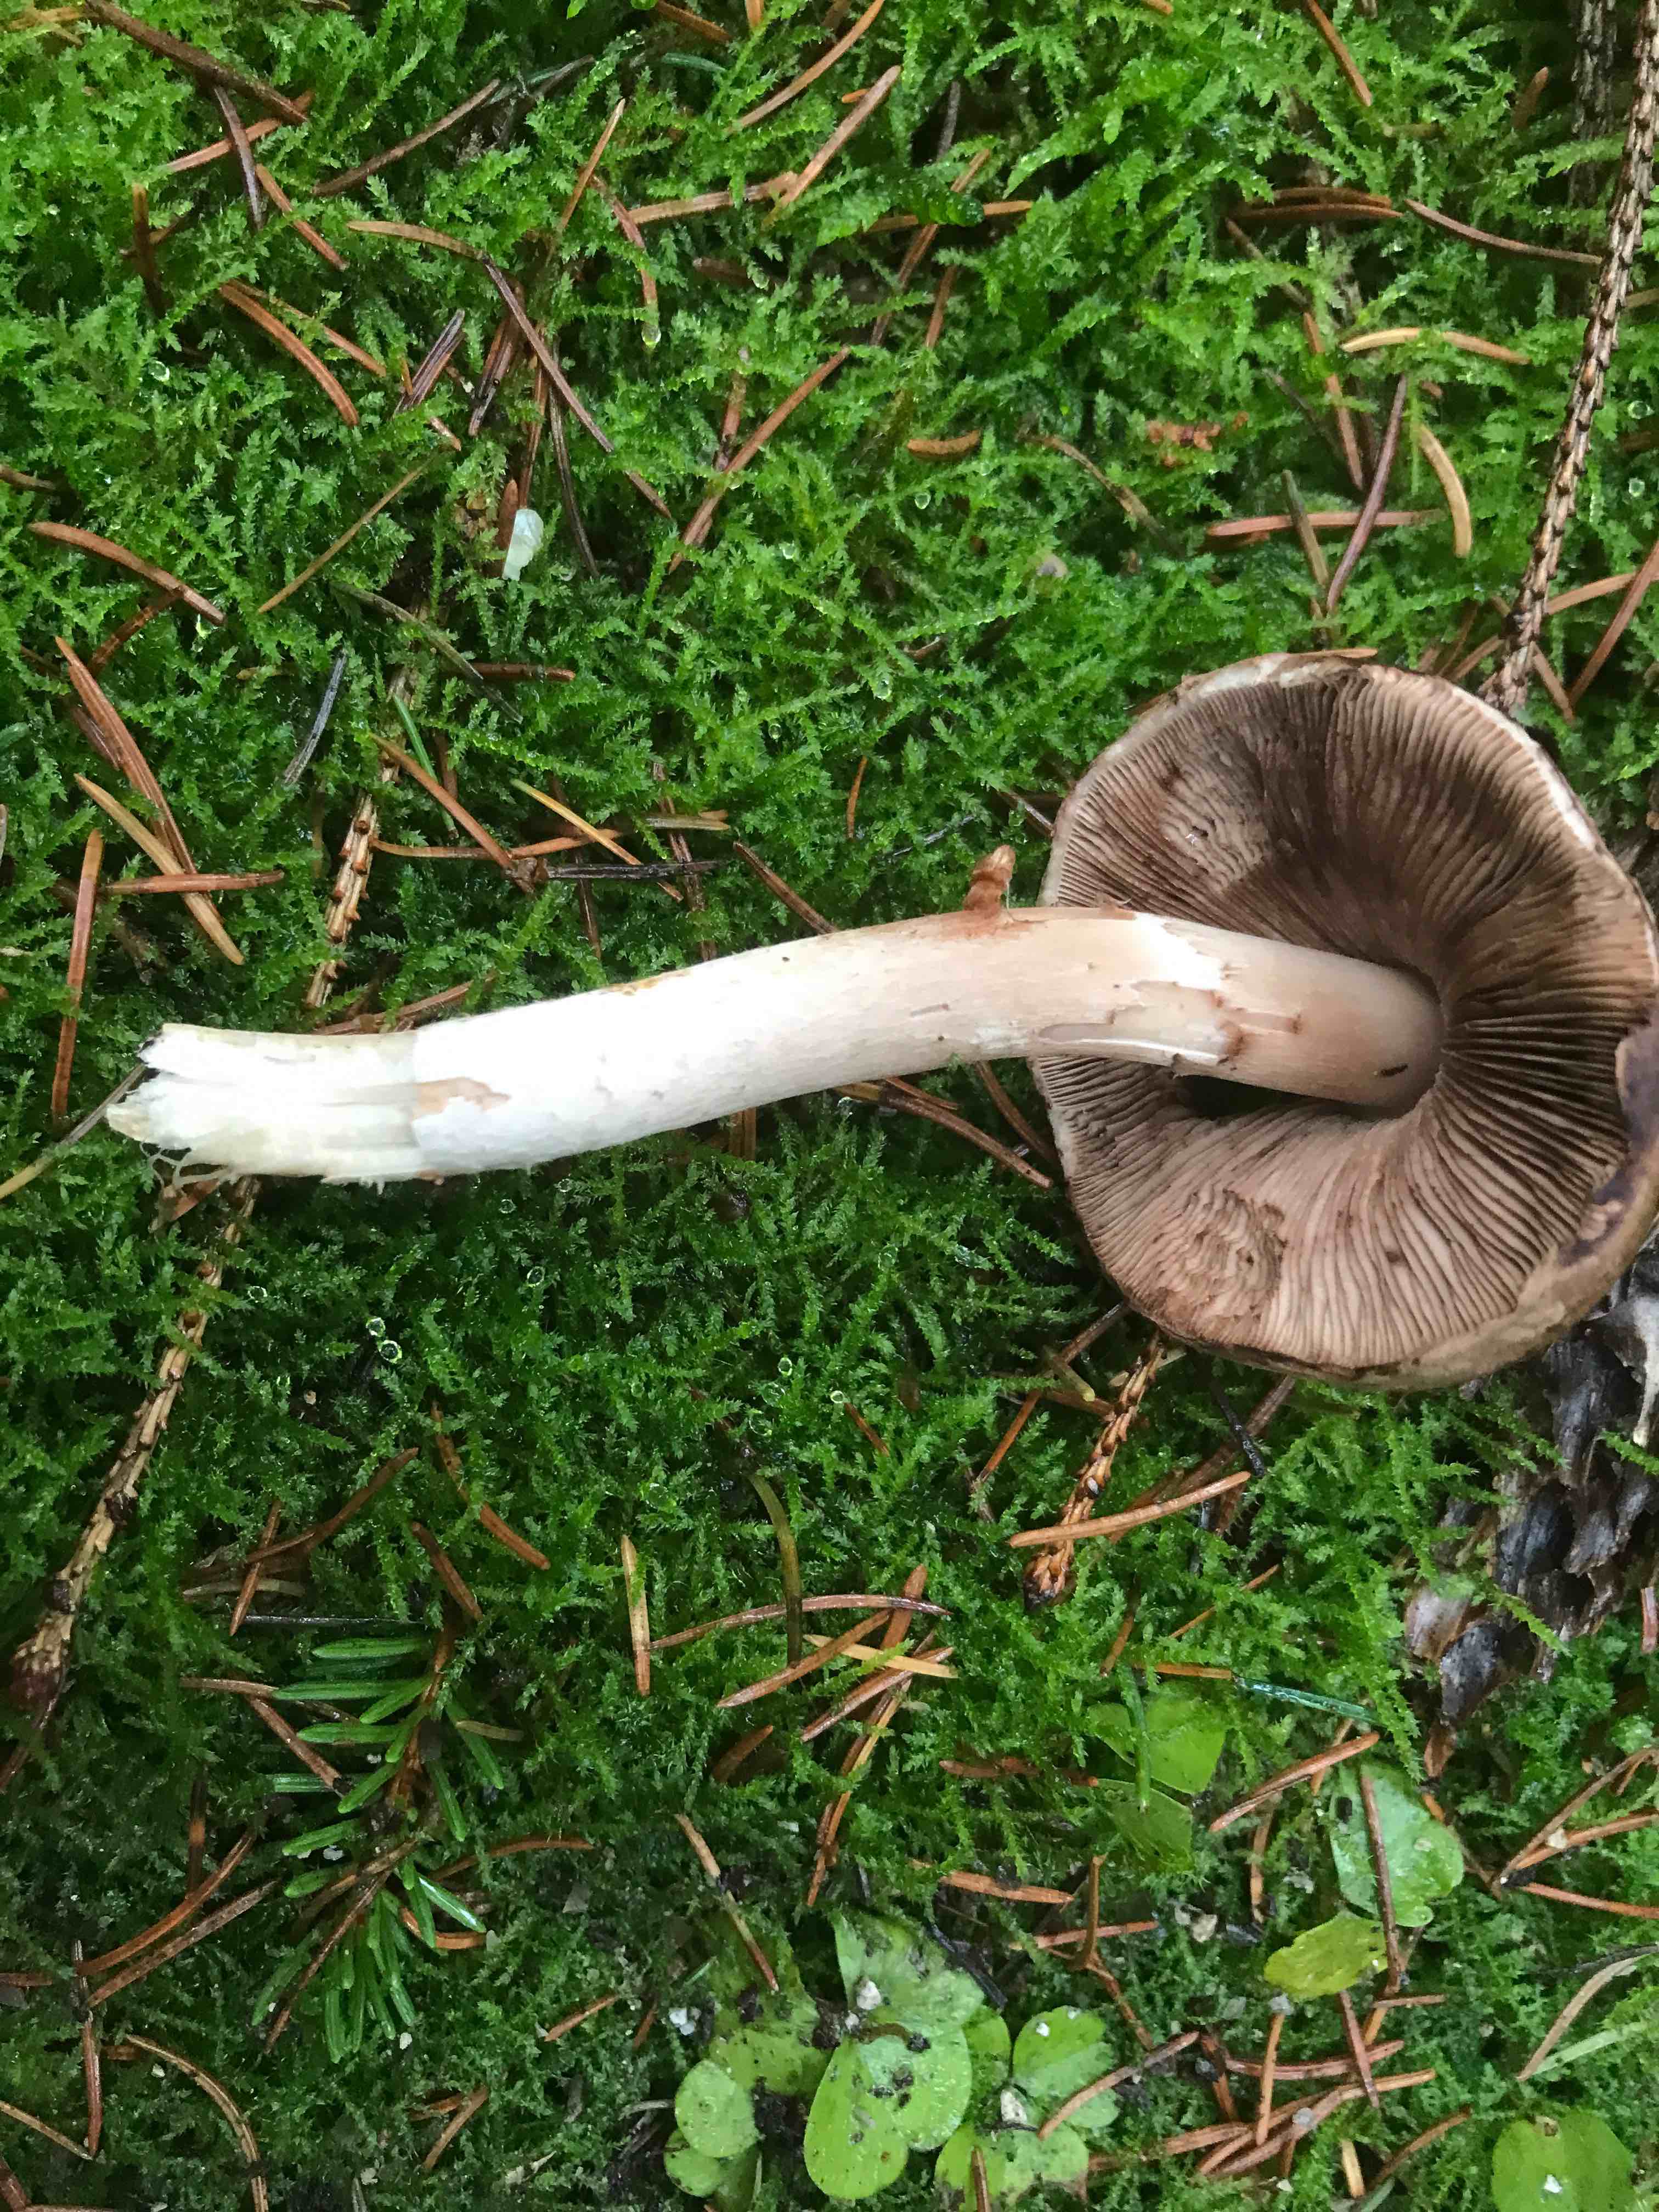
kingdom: Fungi
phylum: Basidiomycota
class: Agaricomycetes
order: Agaricales
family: Agaricaceae
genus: Agaricus
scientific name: Agaricus
